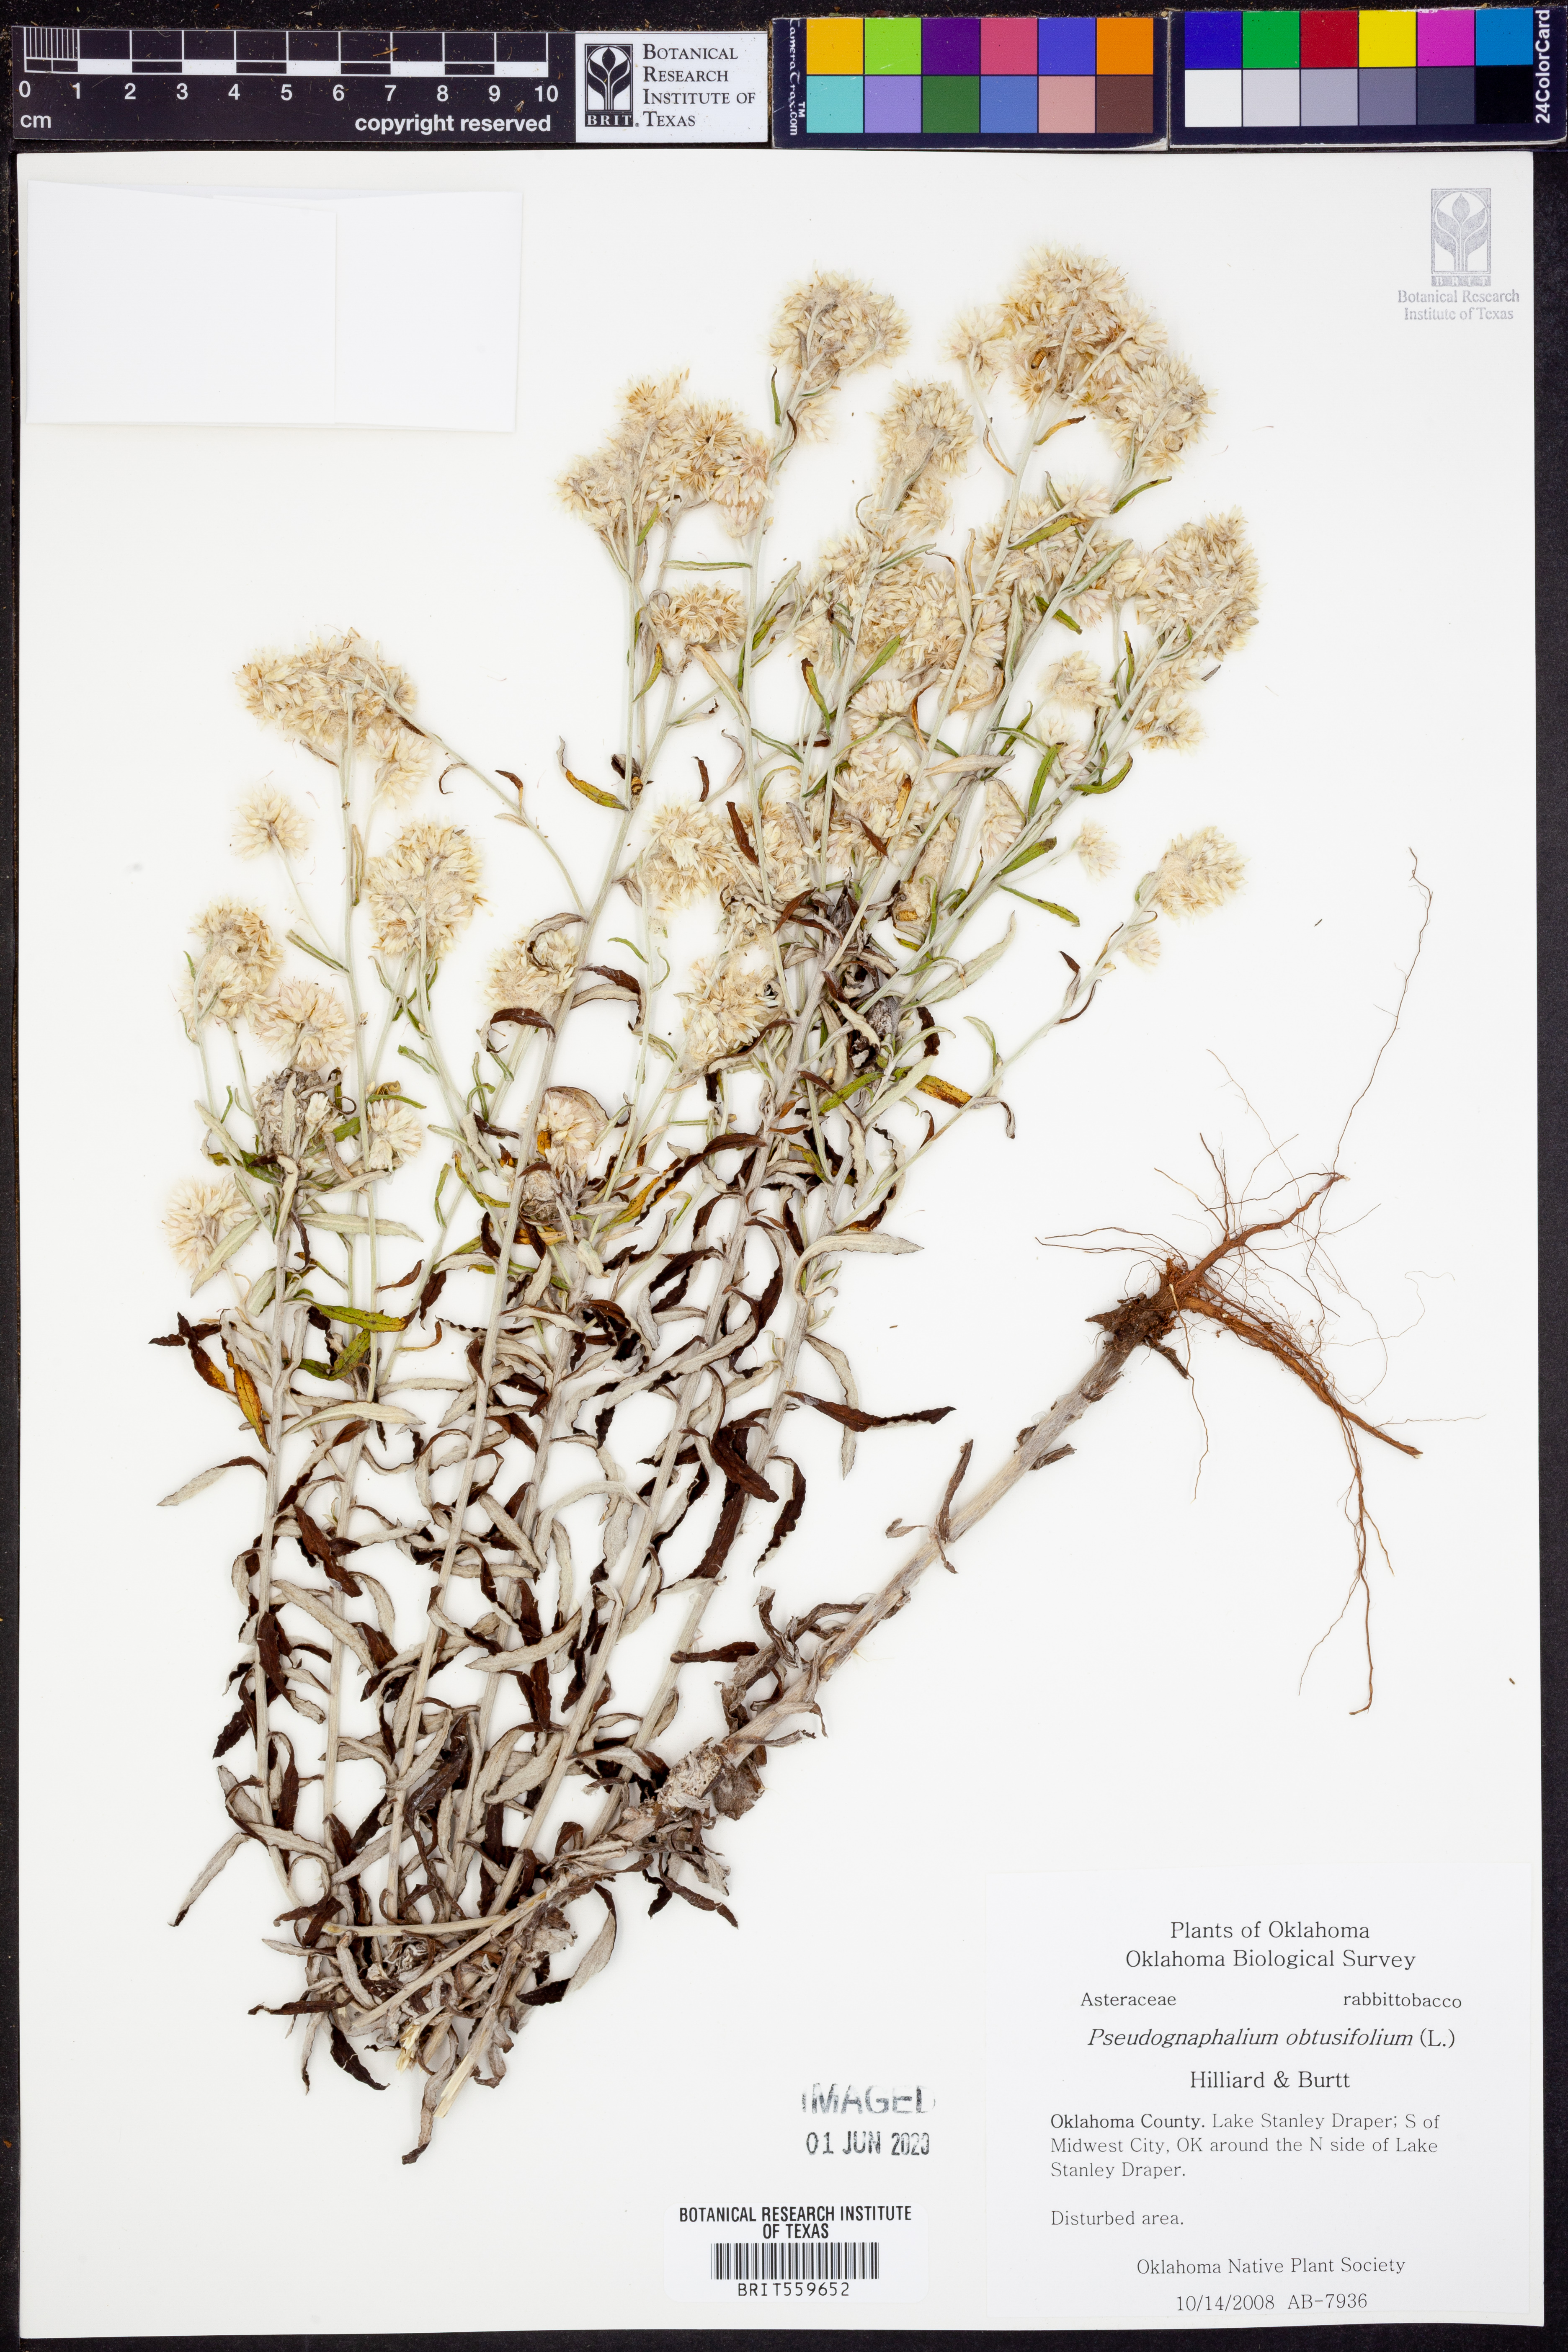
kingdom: Plantae
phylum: Tracheophyta
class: Magnoliopsida
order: Asterales
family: Asteraceae
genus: Pseudognaphalium
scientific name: Pseudognaphalium obtusifolium
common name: Eastern rabbit-tobacco
